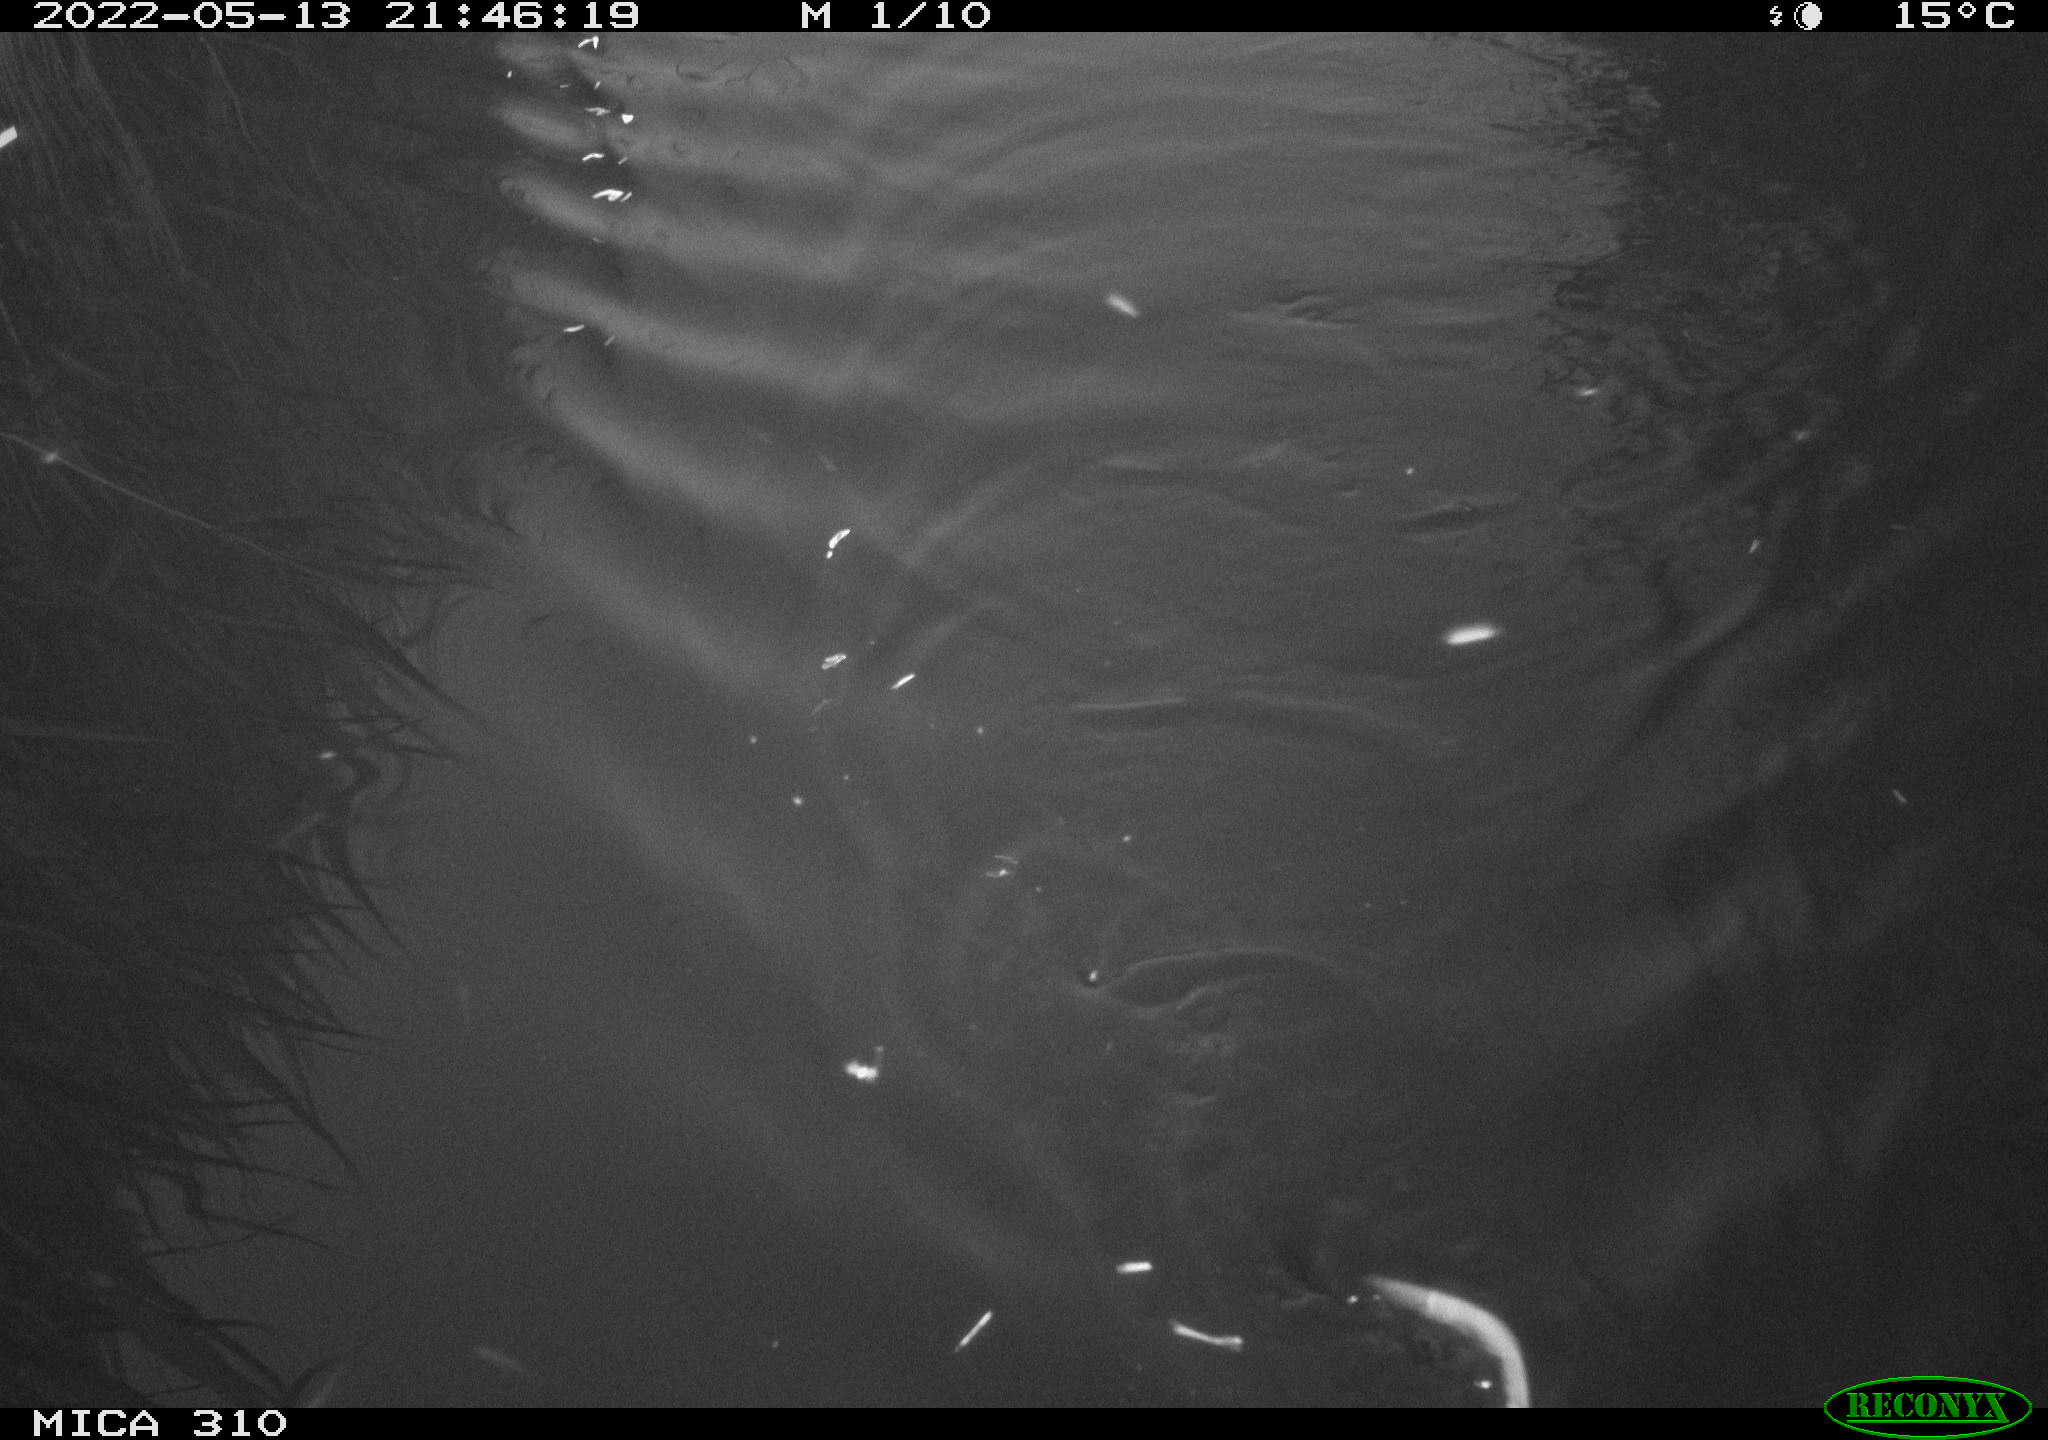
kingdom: Animalia
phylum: Chordata
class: Mammalia
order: Rodentia
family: Muridae
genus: Rattus
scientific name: Rattus norvegicus
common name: Brown rat
